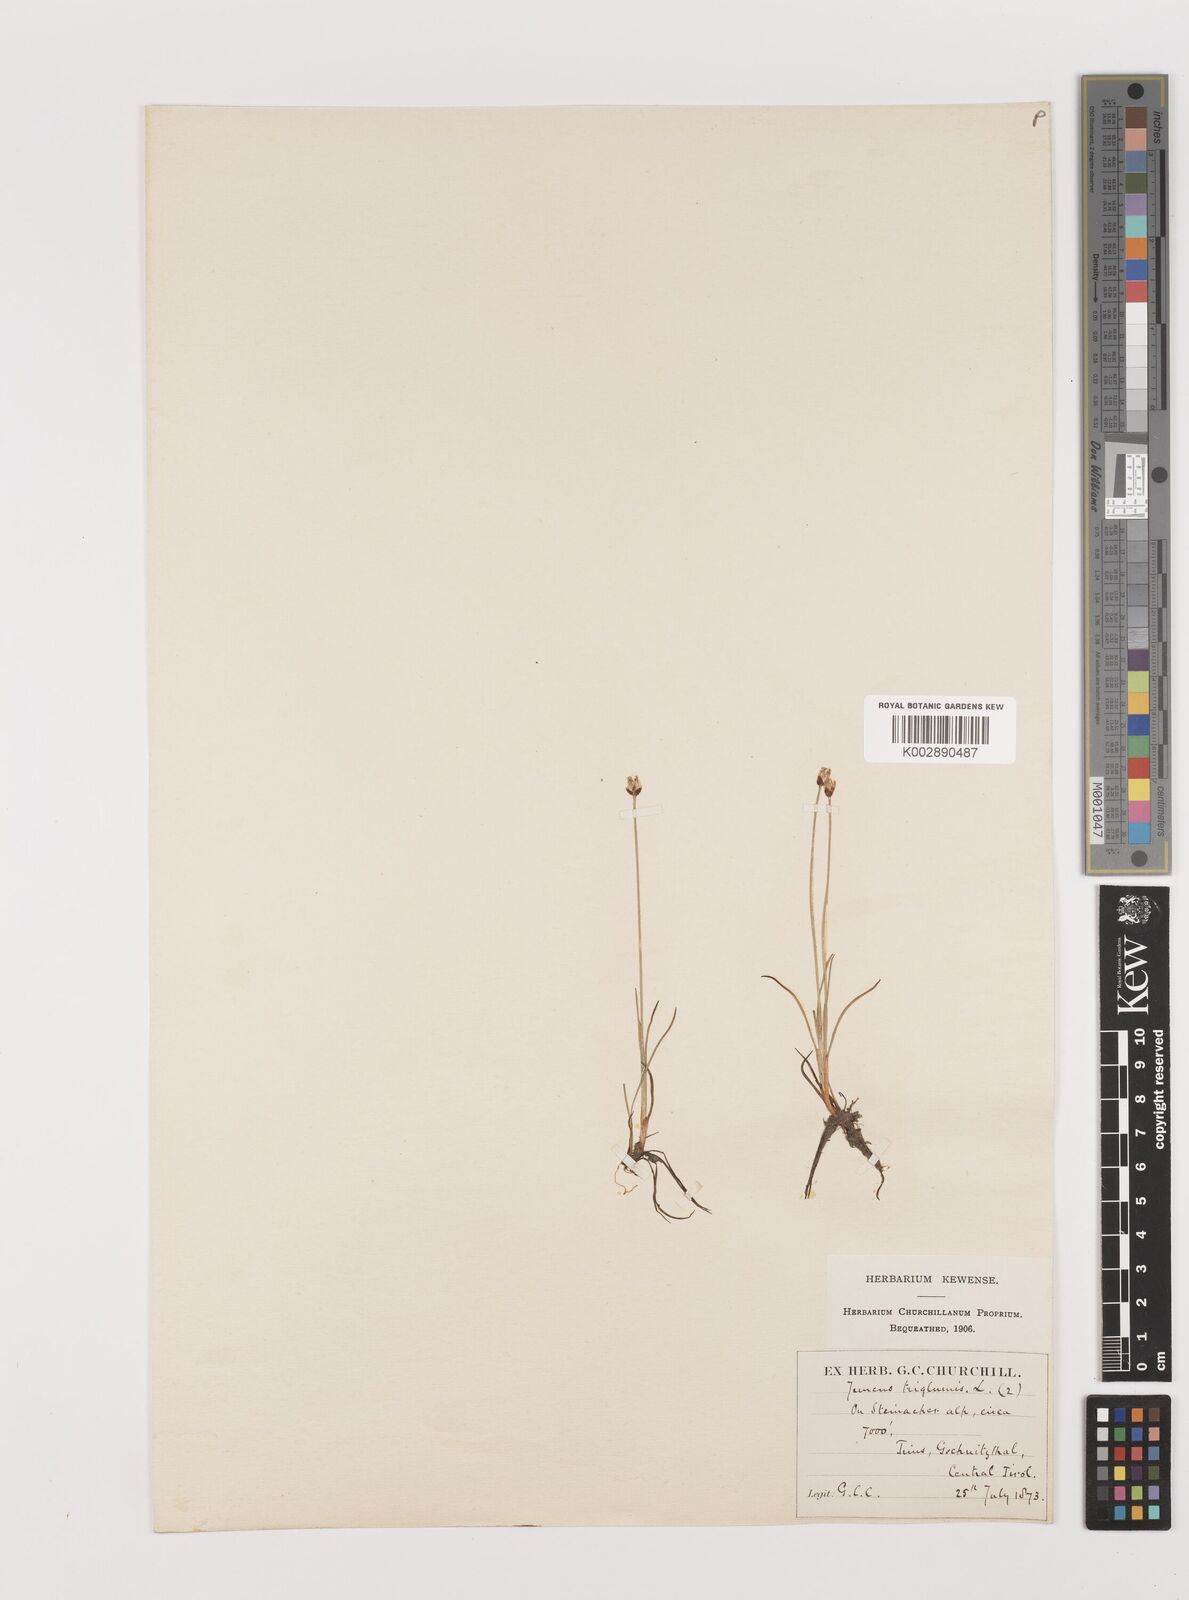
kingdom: Plantae
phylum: Tracheophyta
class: Liliopsida
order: Poales
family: Juncaceae
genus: Juncus
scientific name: Juncus triglumis
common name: Three-flowered rush
